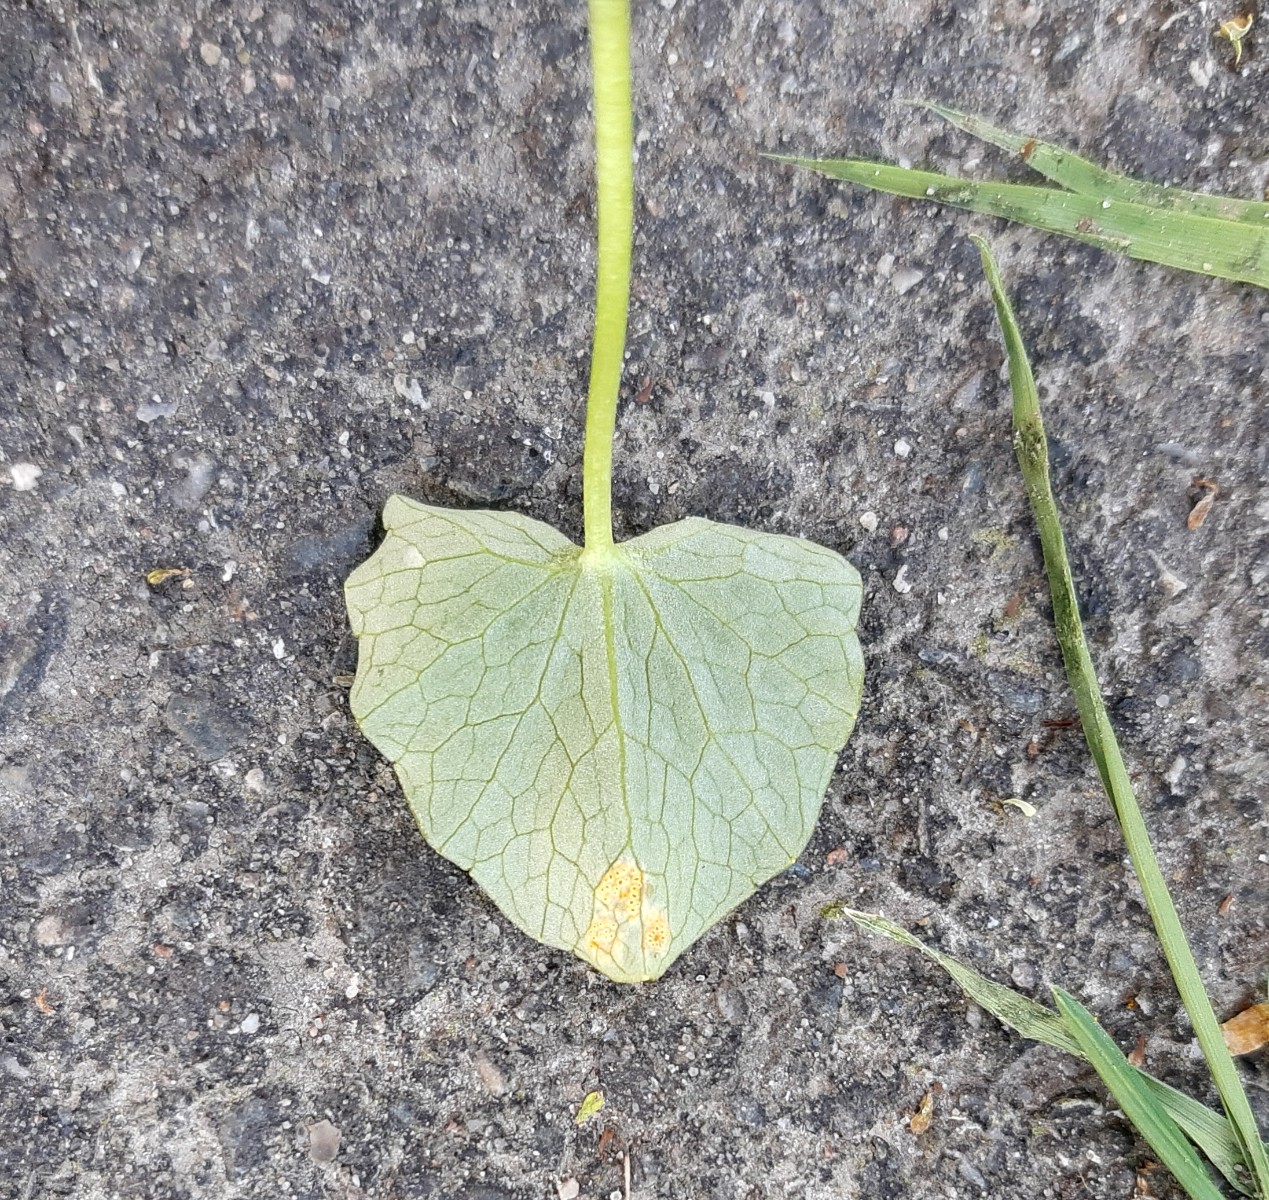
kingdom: Fungi
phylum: Basidiomycota
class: Pucciniomycetes
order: Pucciniales
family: Pucciniaceae
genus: Uromyces
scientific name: Uromyces dactylidis
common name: ranunkel-encellerust
